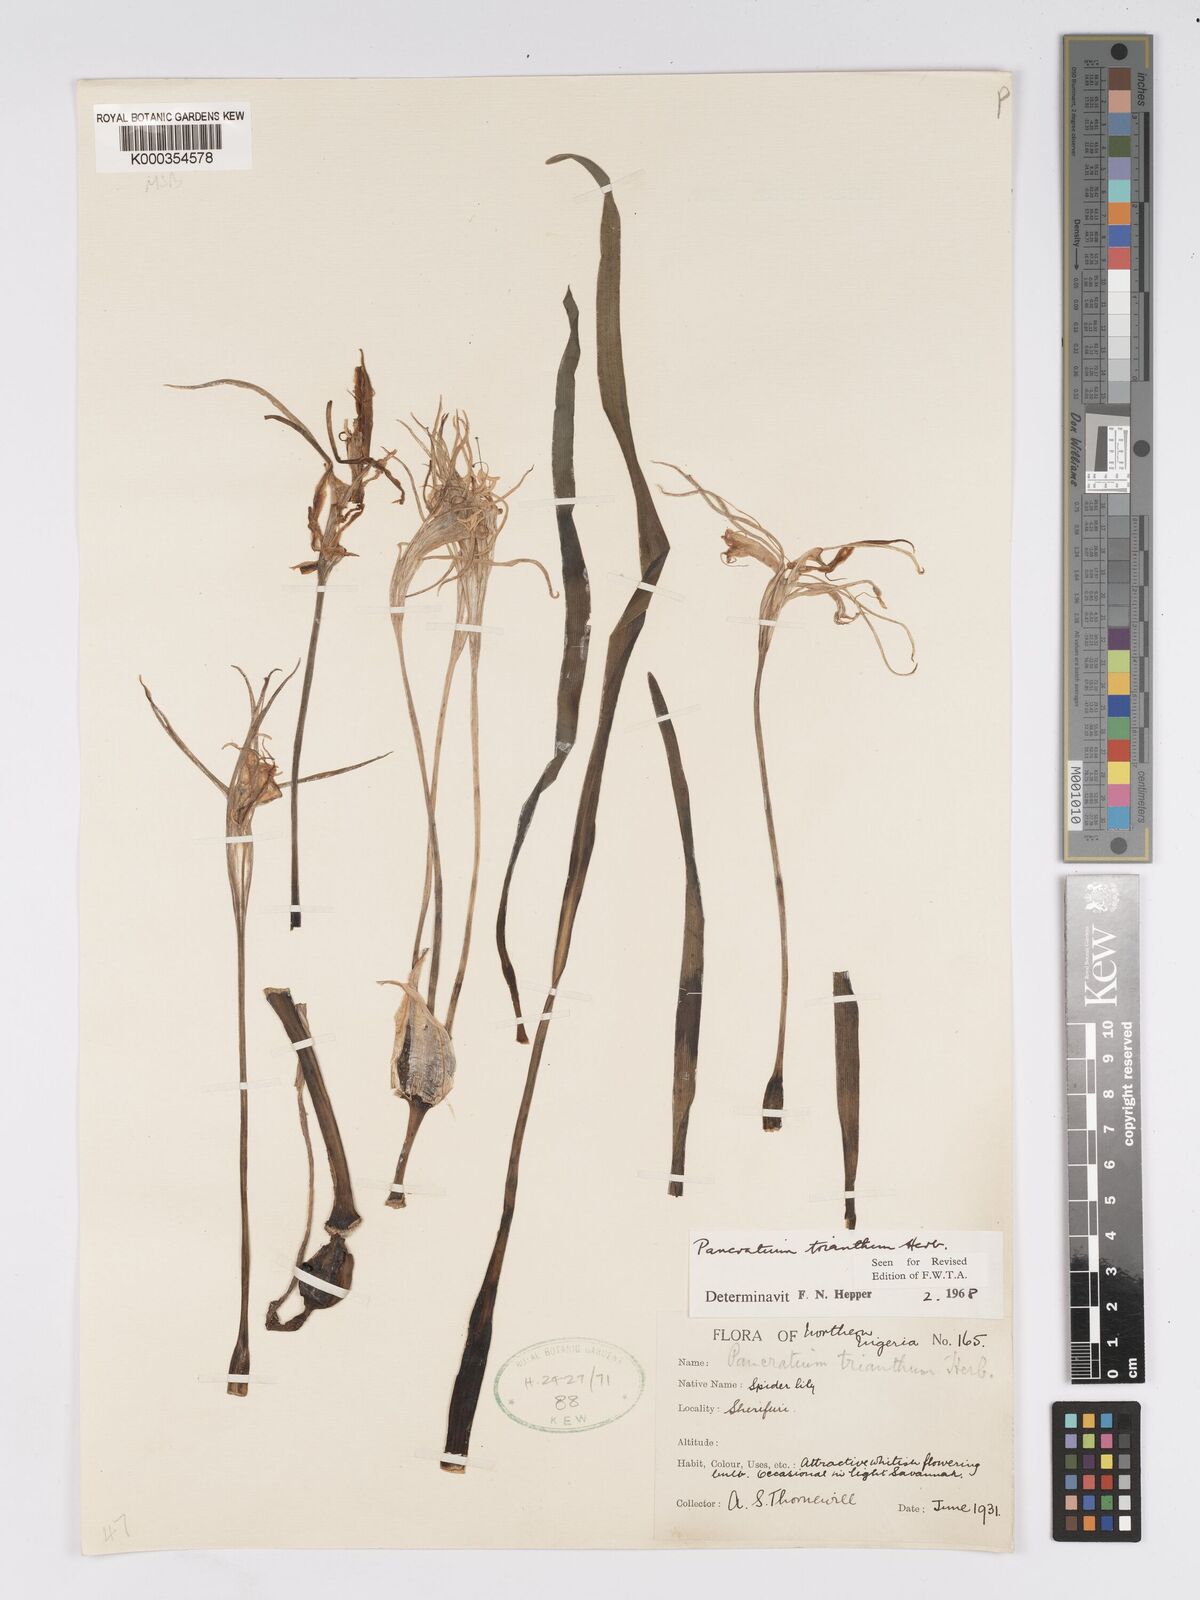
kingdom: Plantae
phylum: Tracheophyta
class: Liliopsida
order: Asparagales
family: Amaryllidaceae
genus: Pancratium
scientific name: Pancratium trianthum
